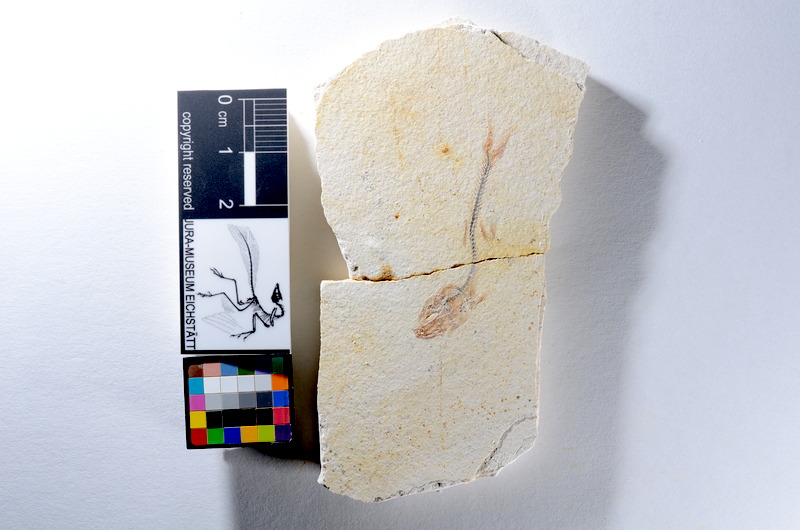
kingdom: Animalia
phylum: Chordata
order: Salmoniformes
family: Orthogonikleithridae
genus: Orthogonikleithrus
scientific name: Orthogonikleithrus hoelli
